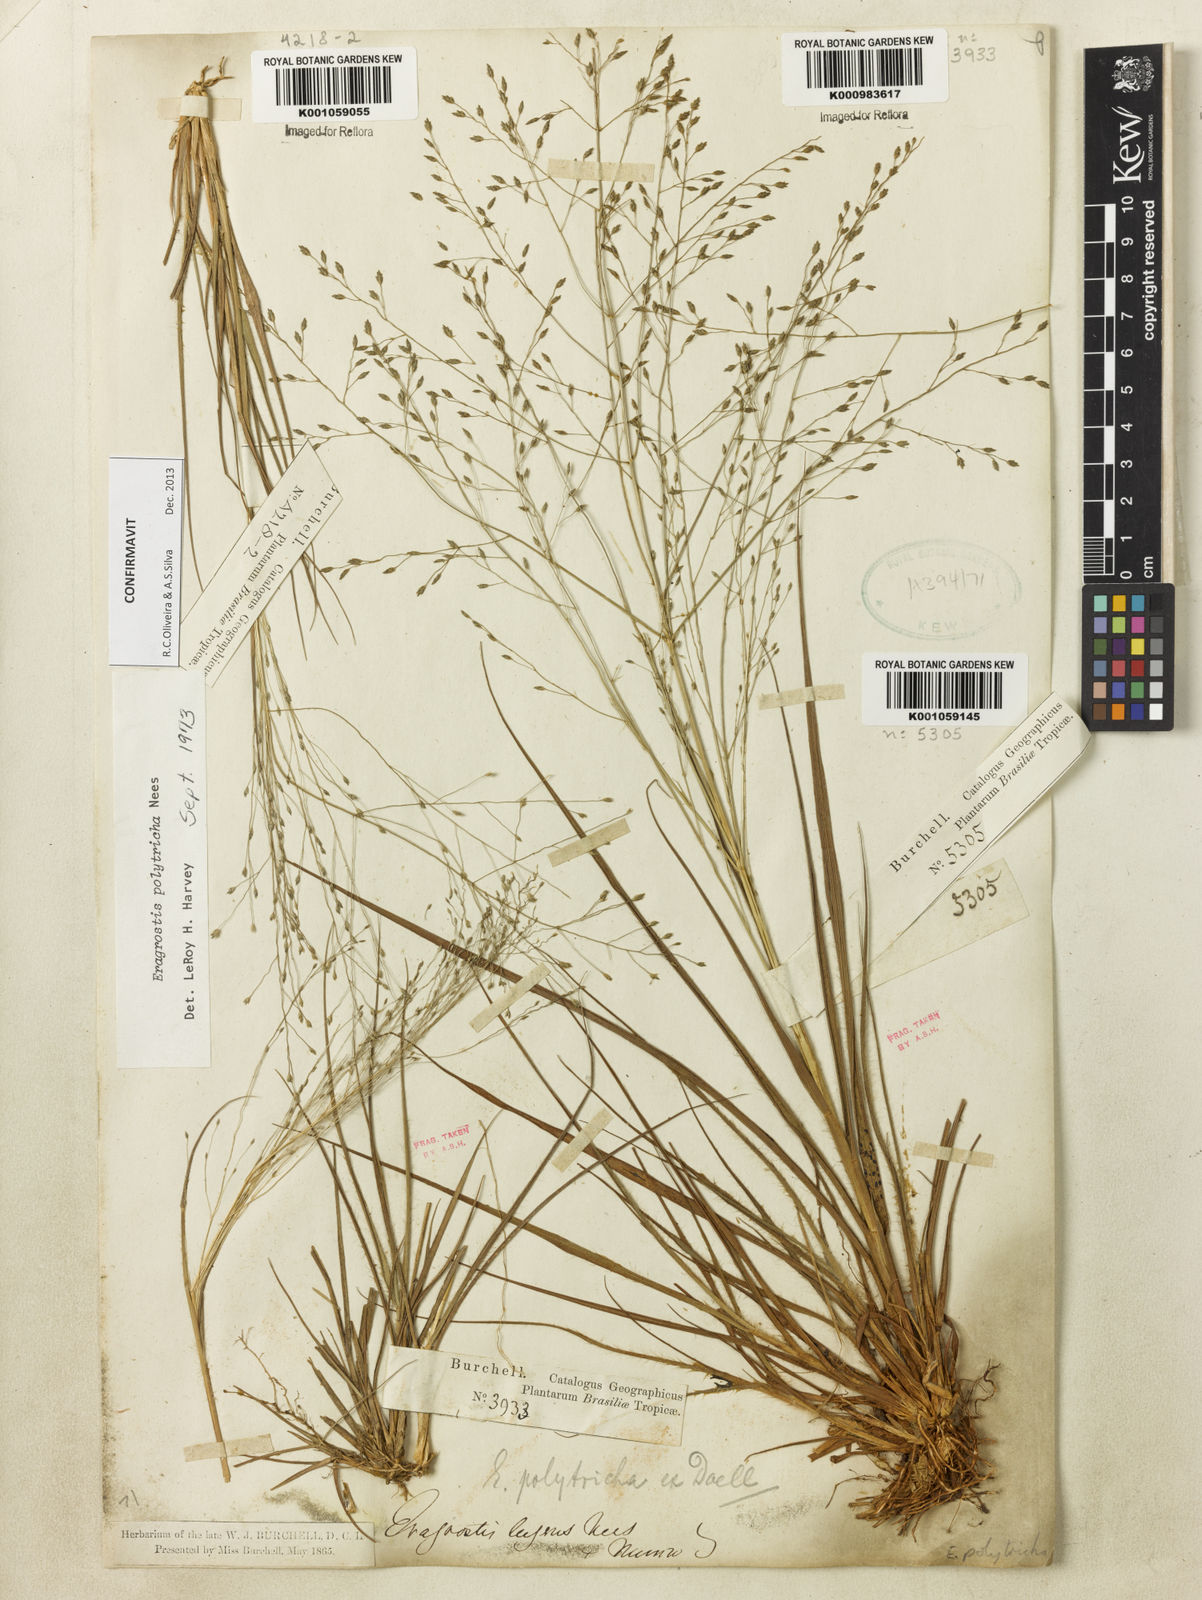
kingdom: Plantae
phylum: Tracheophyta
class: Liliopsida
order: Poales
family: Poaceae
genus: Eragrostis
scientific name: Eragrostis polytricha
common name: Hairy-sheath love grass
